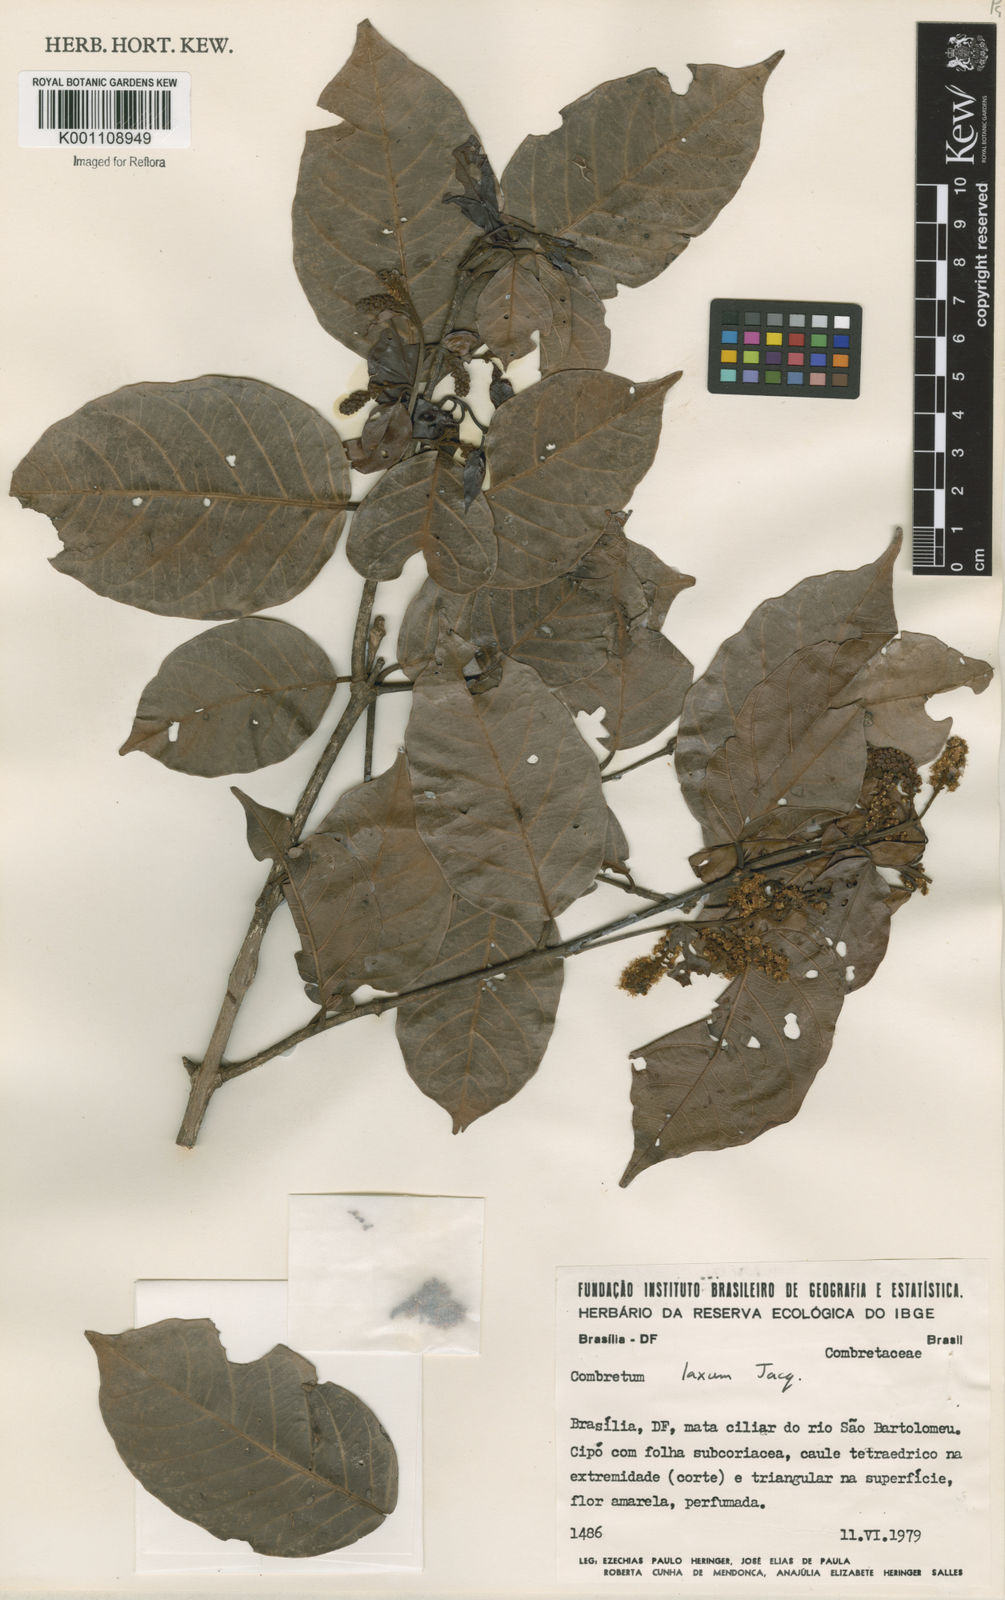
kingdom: Plantae
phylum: Tracheophyta
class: Magnoliopsida
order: Myrtales
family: Combretaceae
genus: Combretum
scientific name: Combretum laxum
